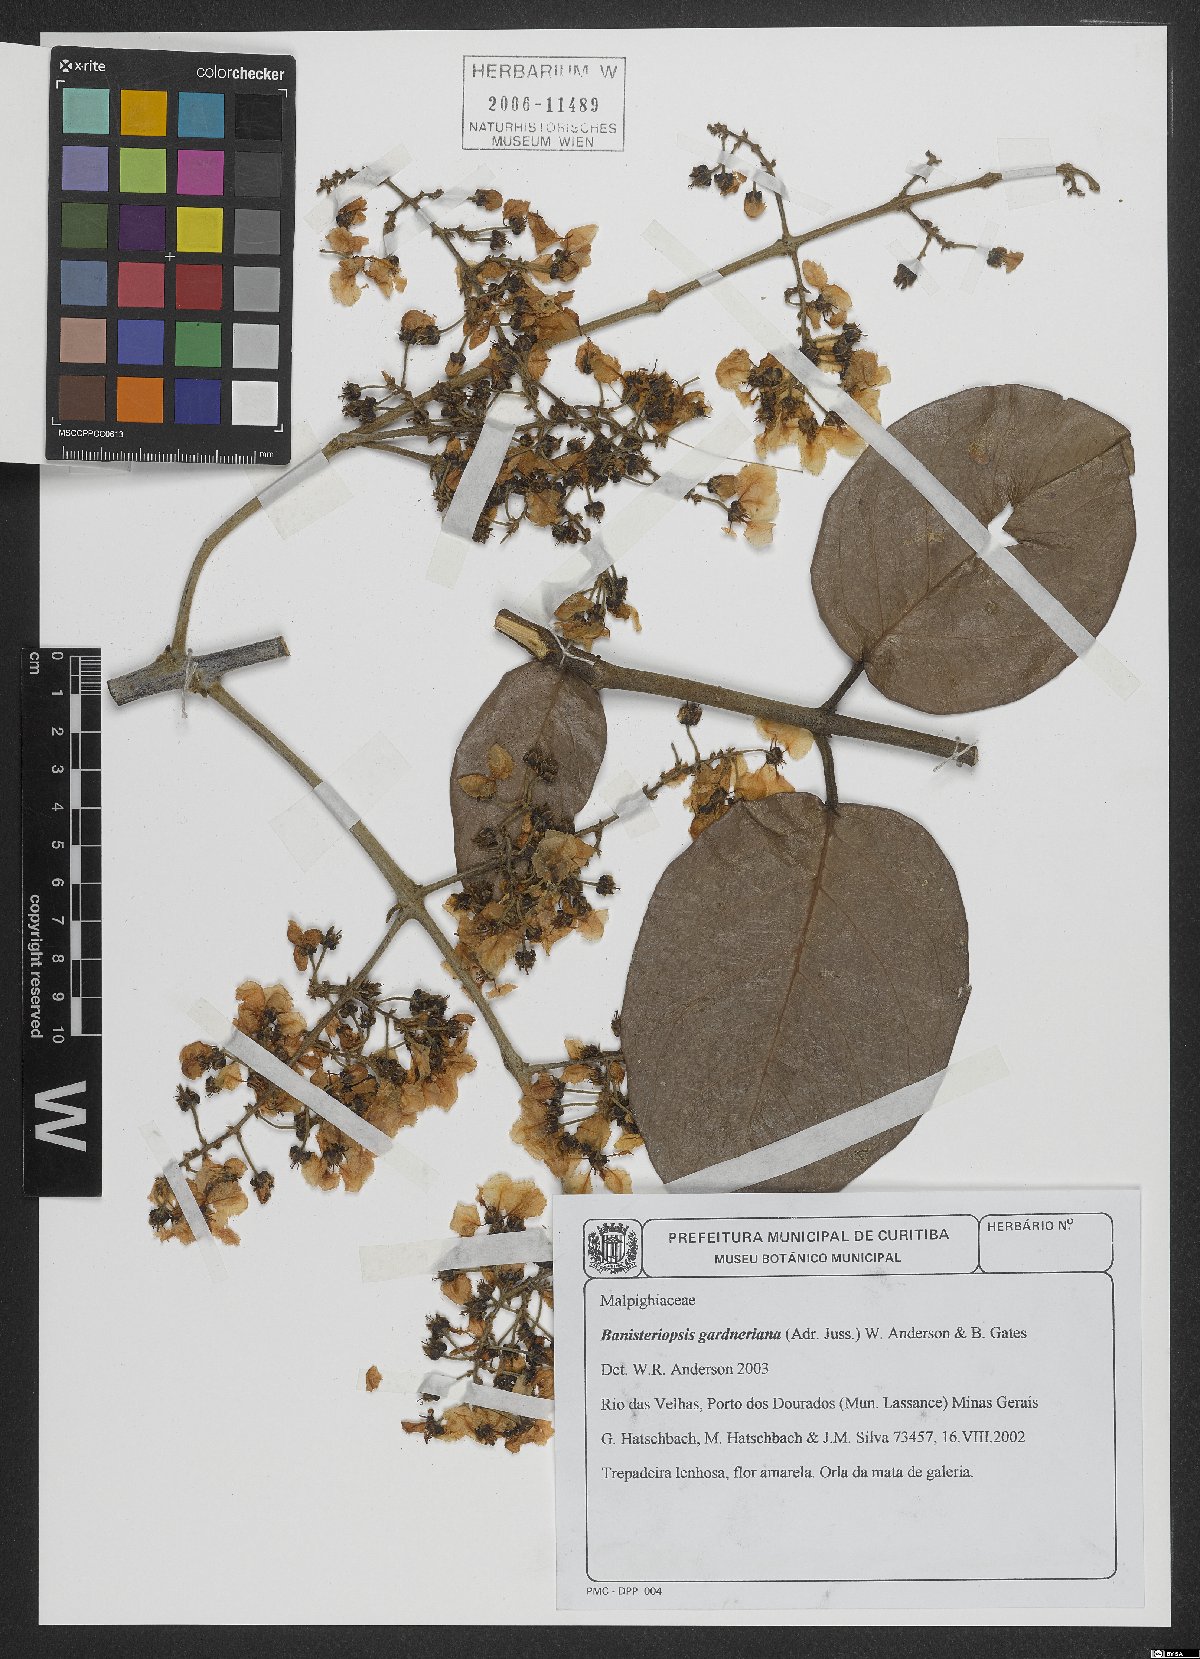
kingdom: Plantae
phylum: Tracheophyta
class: Magnoliopsida
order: Malpighiales
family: Malpighiaceae
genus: Banisteriopsis
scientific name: Banisteriopsis gardneriana
